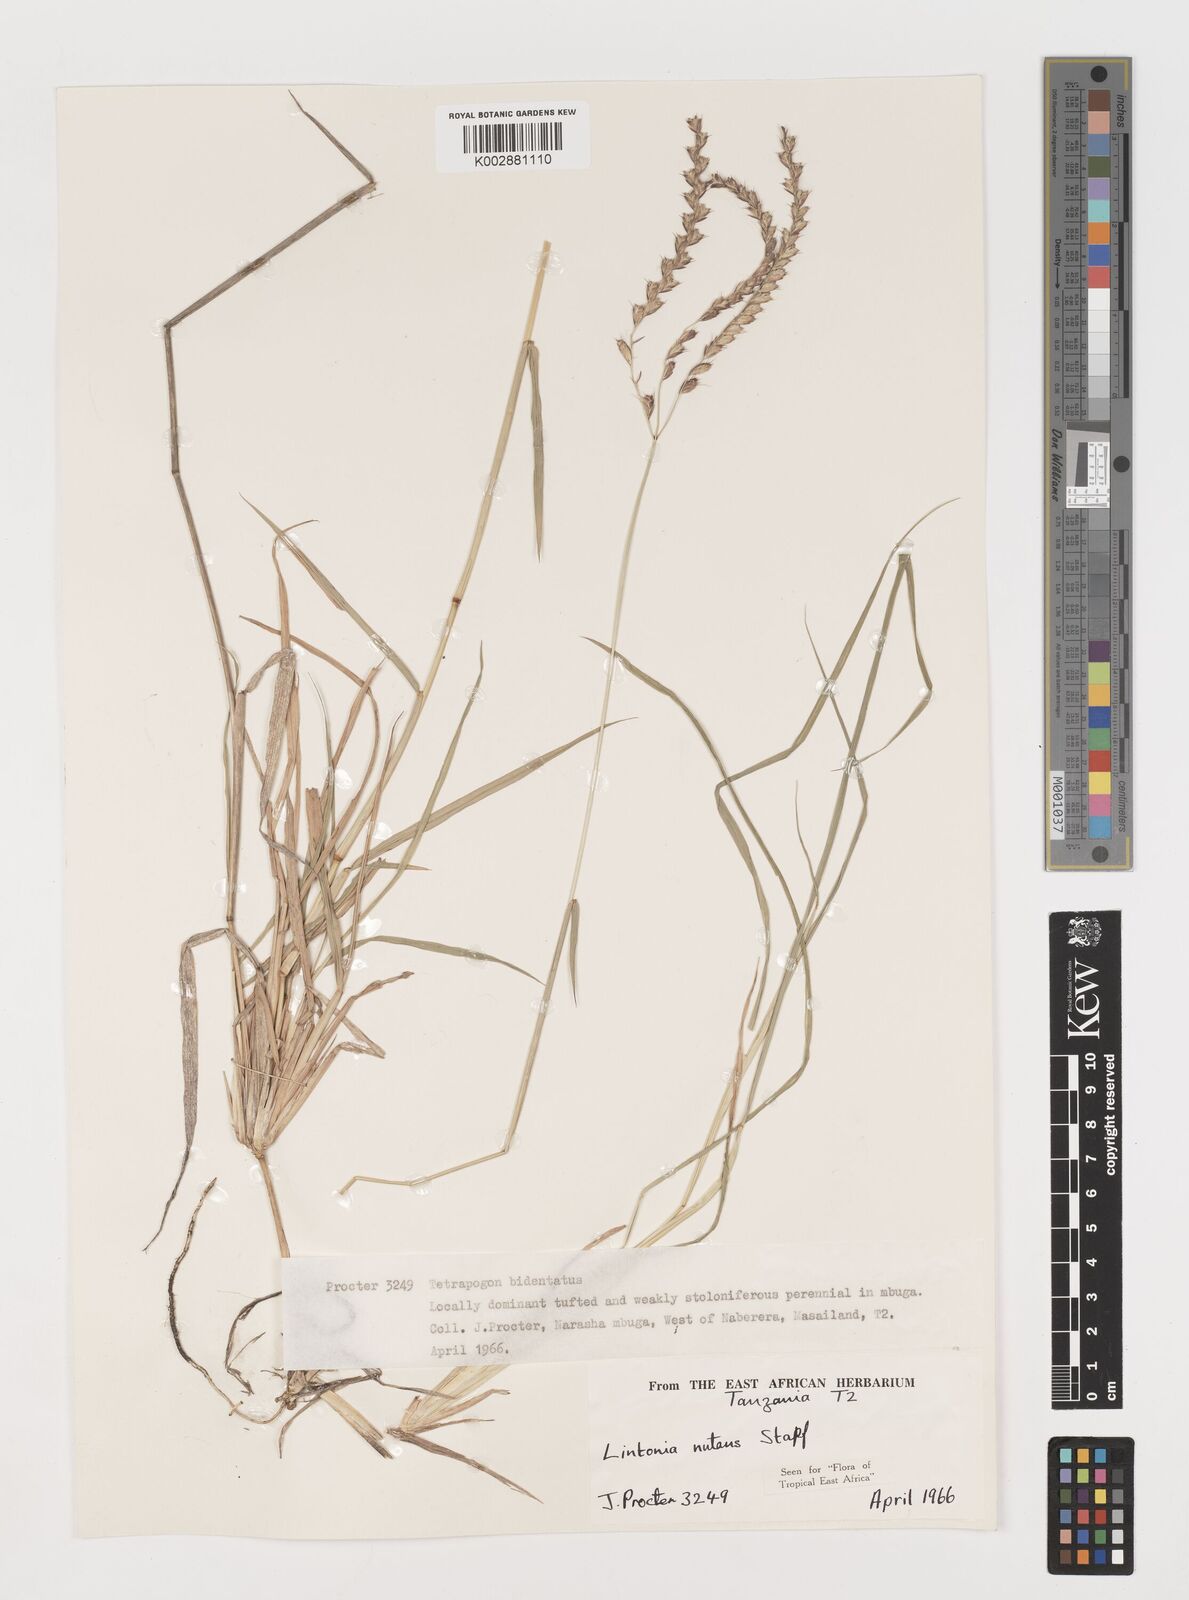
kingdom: Plantae
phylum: Tracheophyta
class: Liliopsida
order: Poales
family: Poaceae
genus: Chloris
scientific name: Chloris nutans
